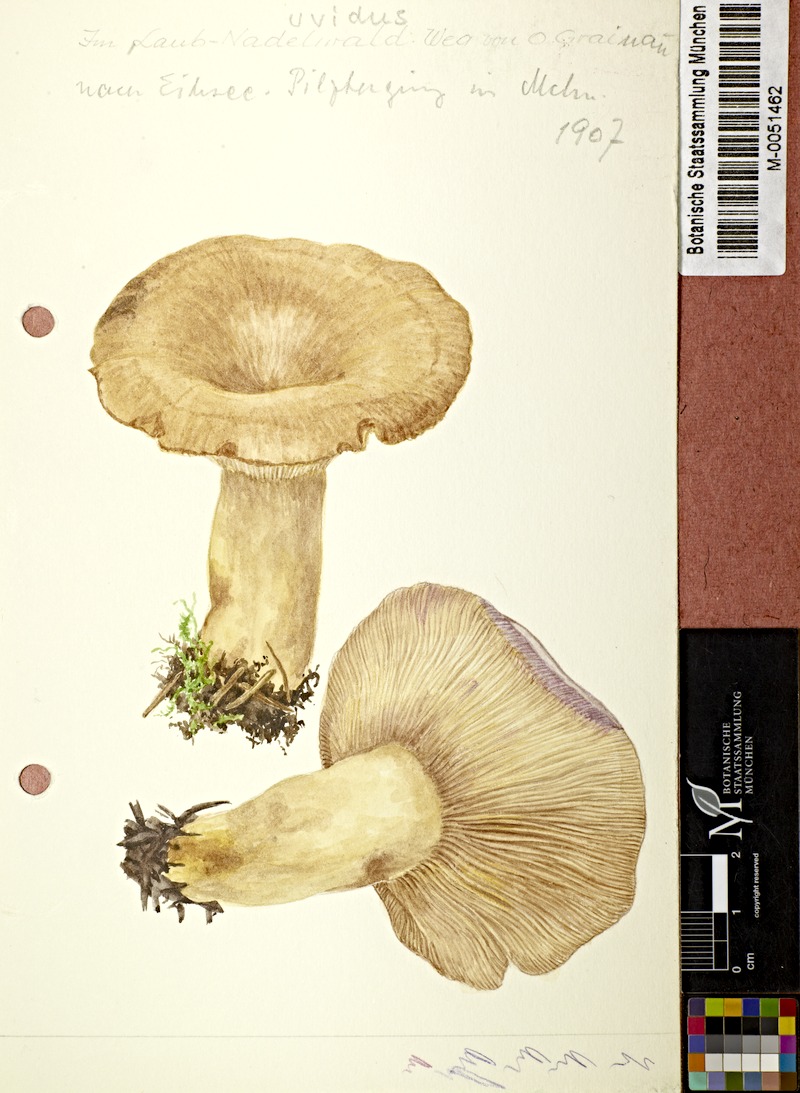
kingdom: Fungi
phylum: Basidiomycota
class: Agaricomycetes
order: Russulales
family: Russulaceae
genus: Lactarius
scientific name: Lactarius uvidus
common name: Shiner milkcap
